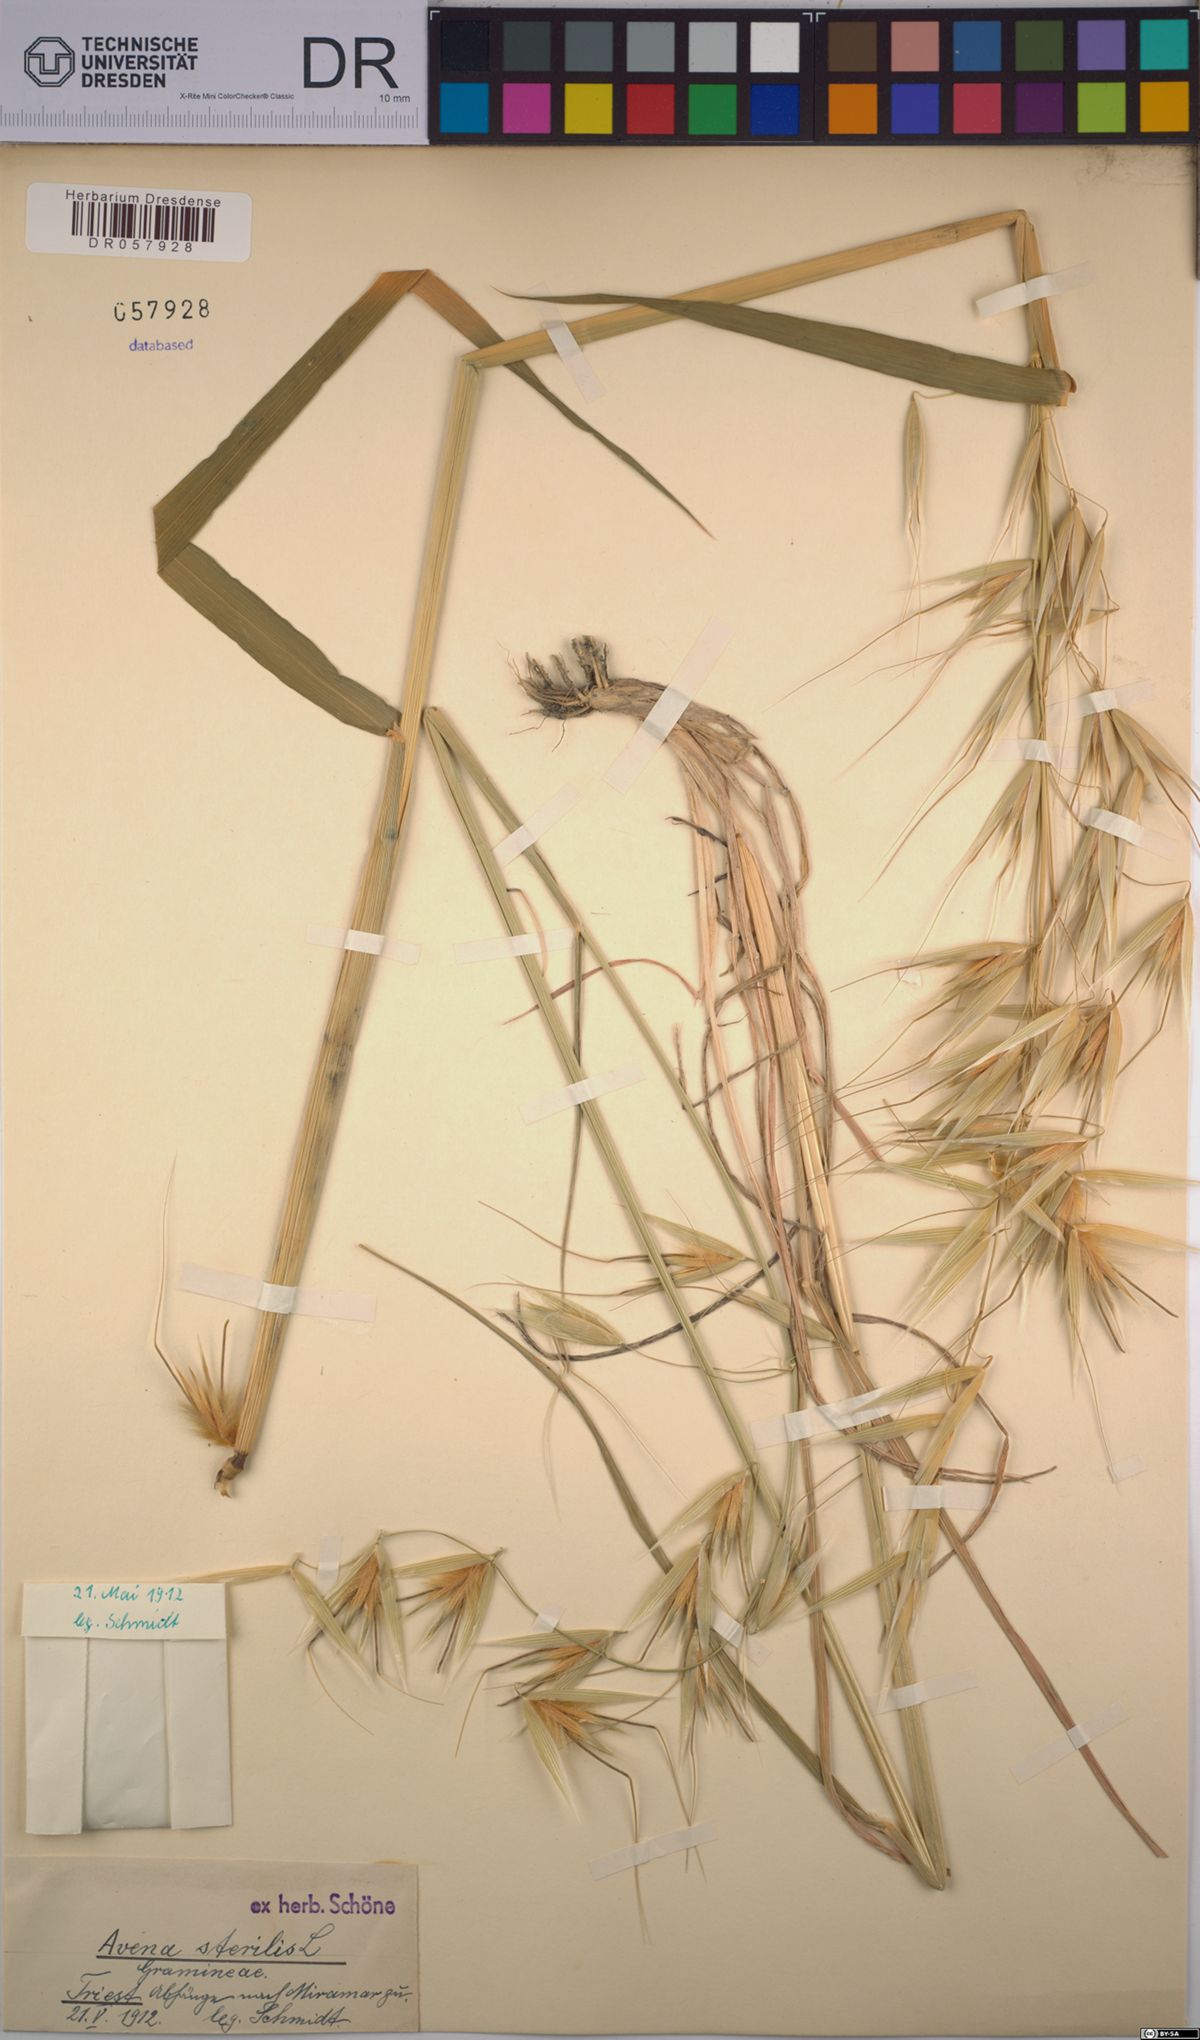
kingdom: Plantae
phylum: Tracheophyta
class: Liliopsida
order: Poales
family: Poaceae
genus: Avena
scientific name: Avena sterilis
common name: Animated oat
